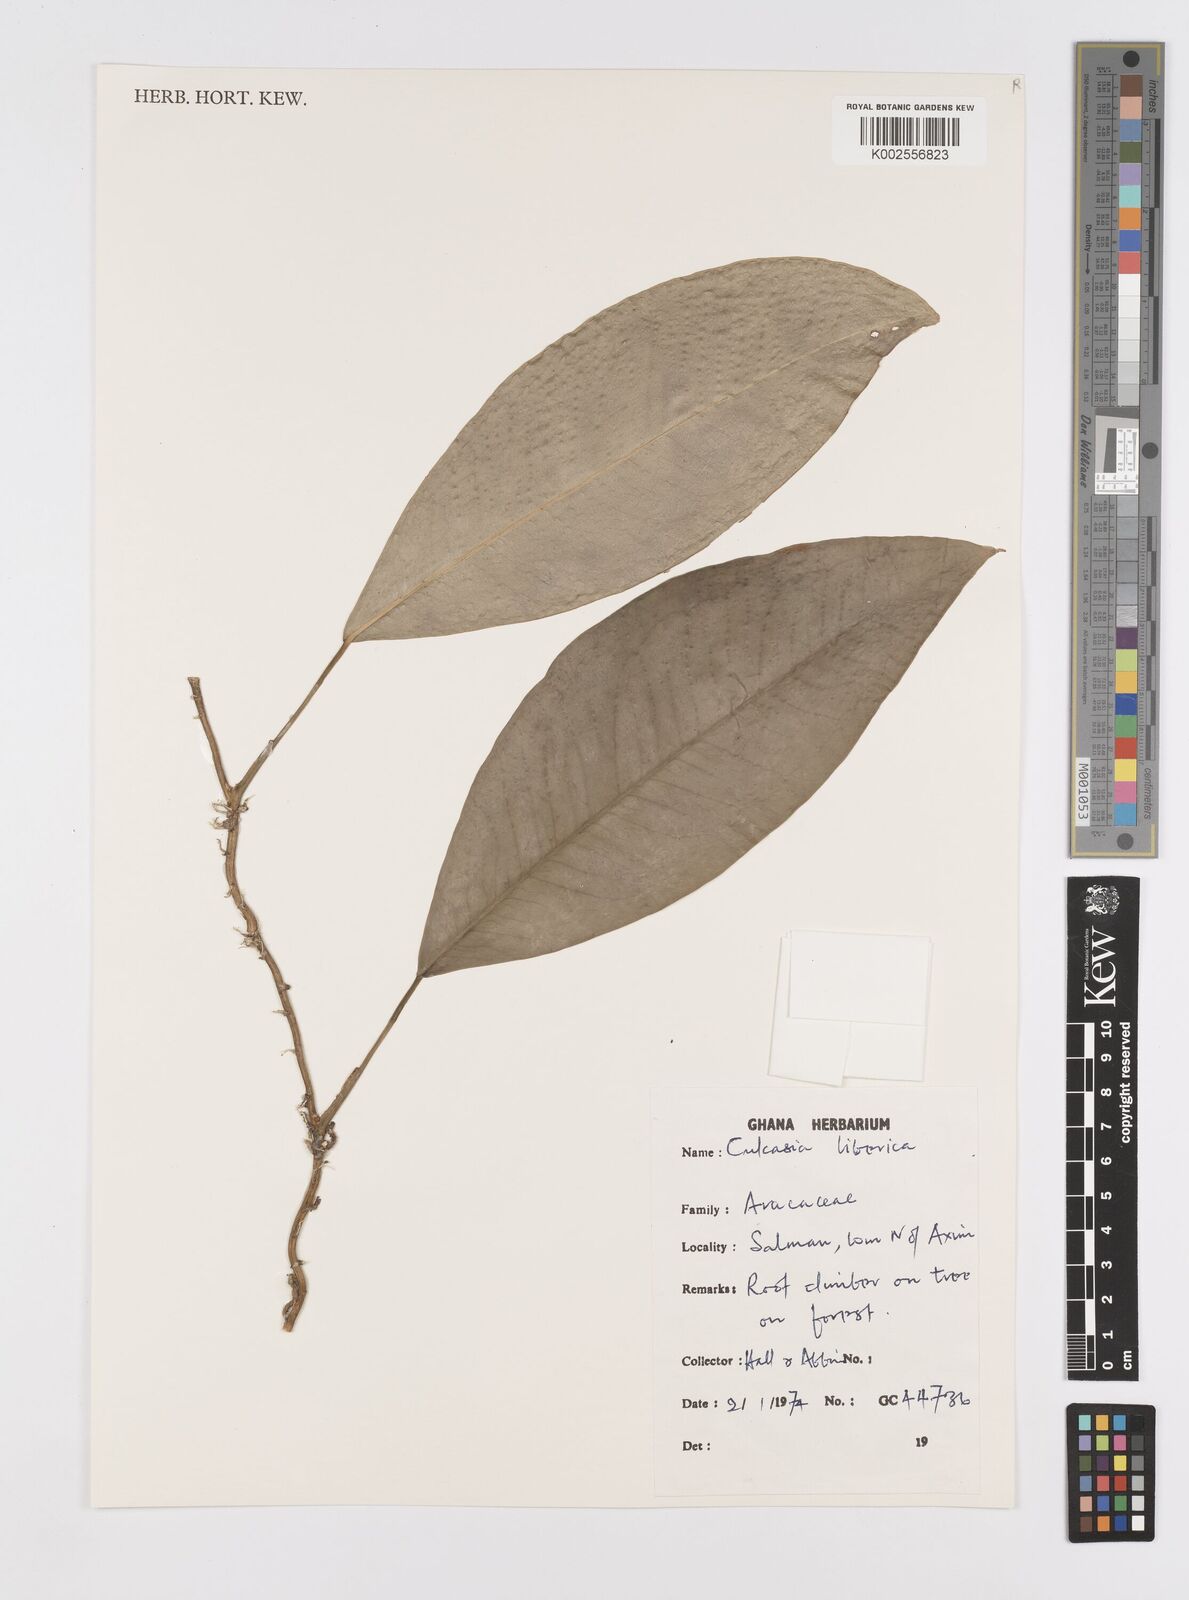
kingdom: Plantae
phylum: Tracheophyta
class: Liliopsida
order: Alismatales
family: Araceae
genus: Culcasia
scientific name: Culcasia liberica
